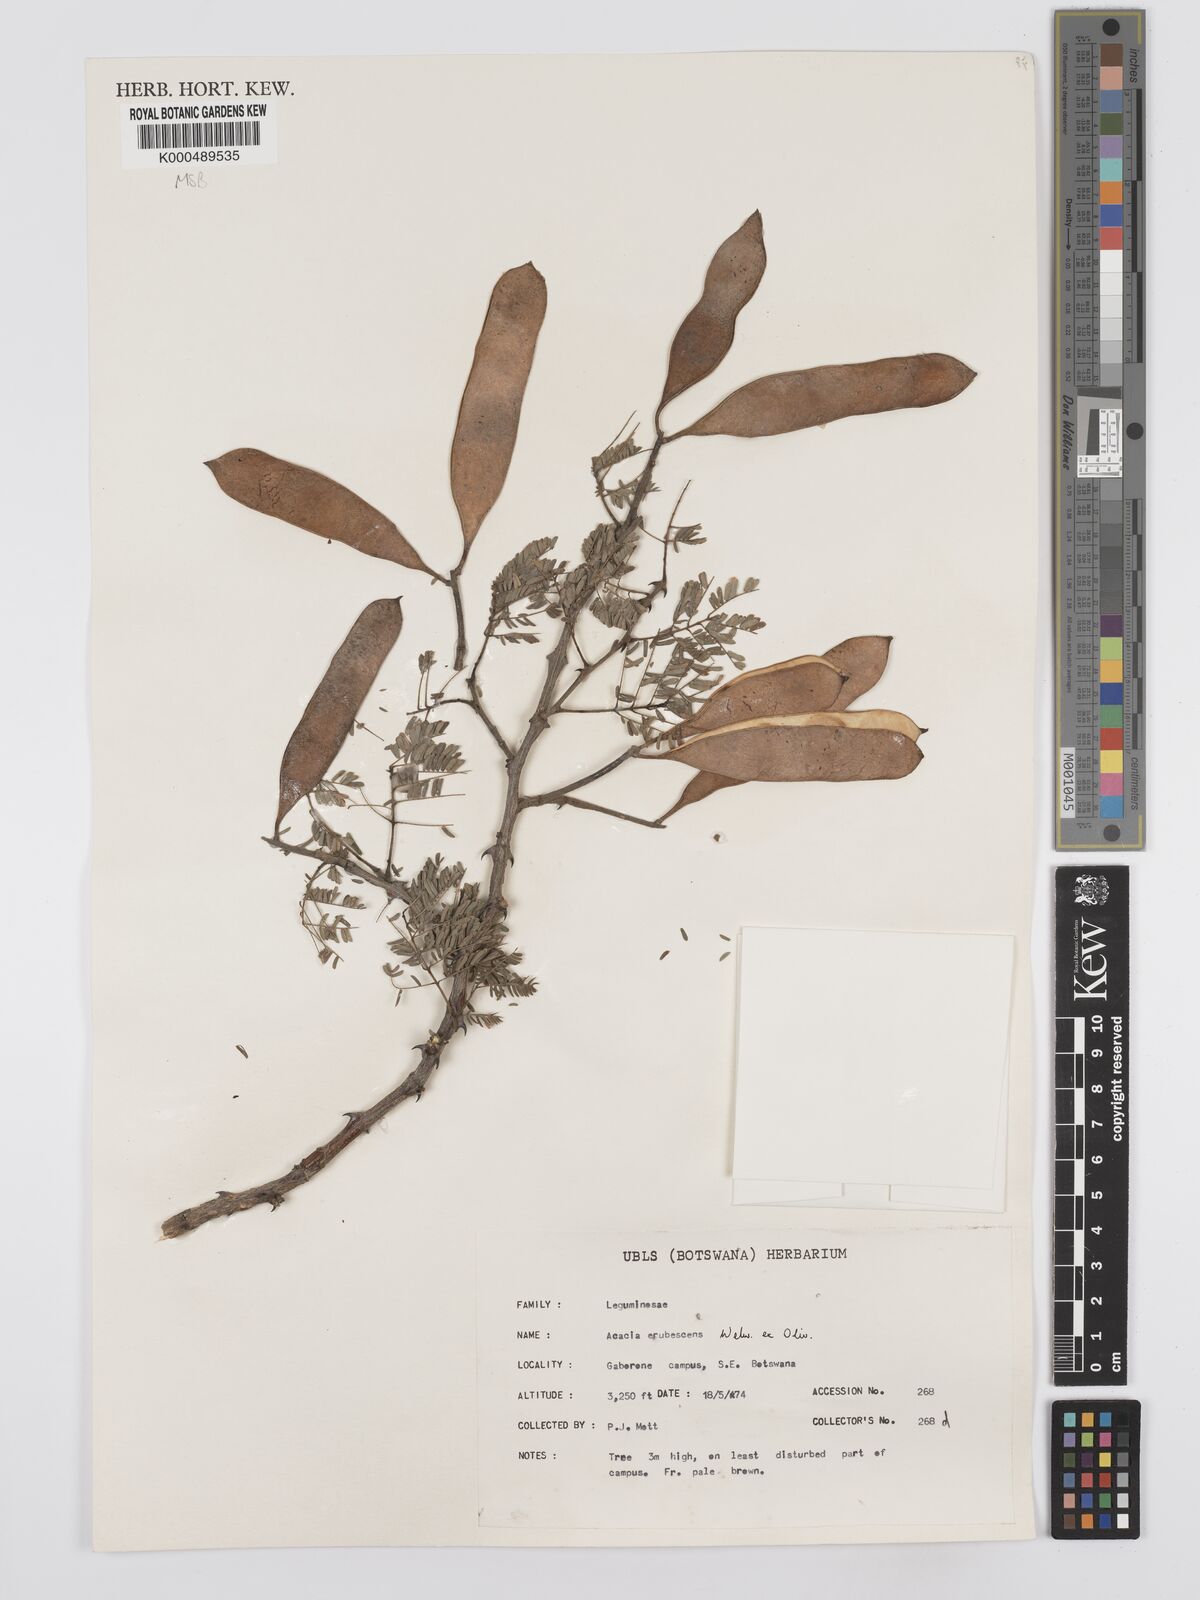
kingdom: Plantae
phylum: Tracheophyta
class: Magnoliopsida
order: Fabales
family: Fabaceae
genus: Senegalia
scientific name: Senegalia erubescens
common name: Bluethorn
